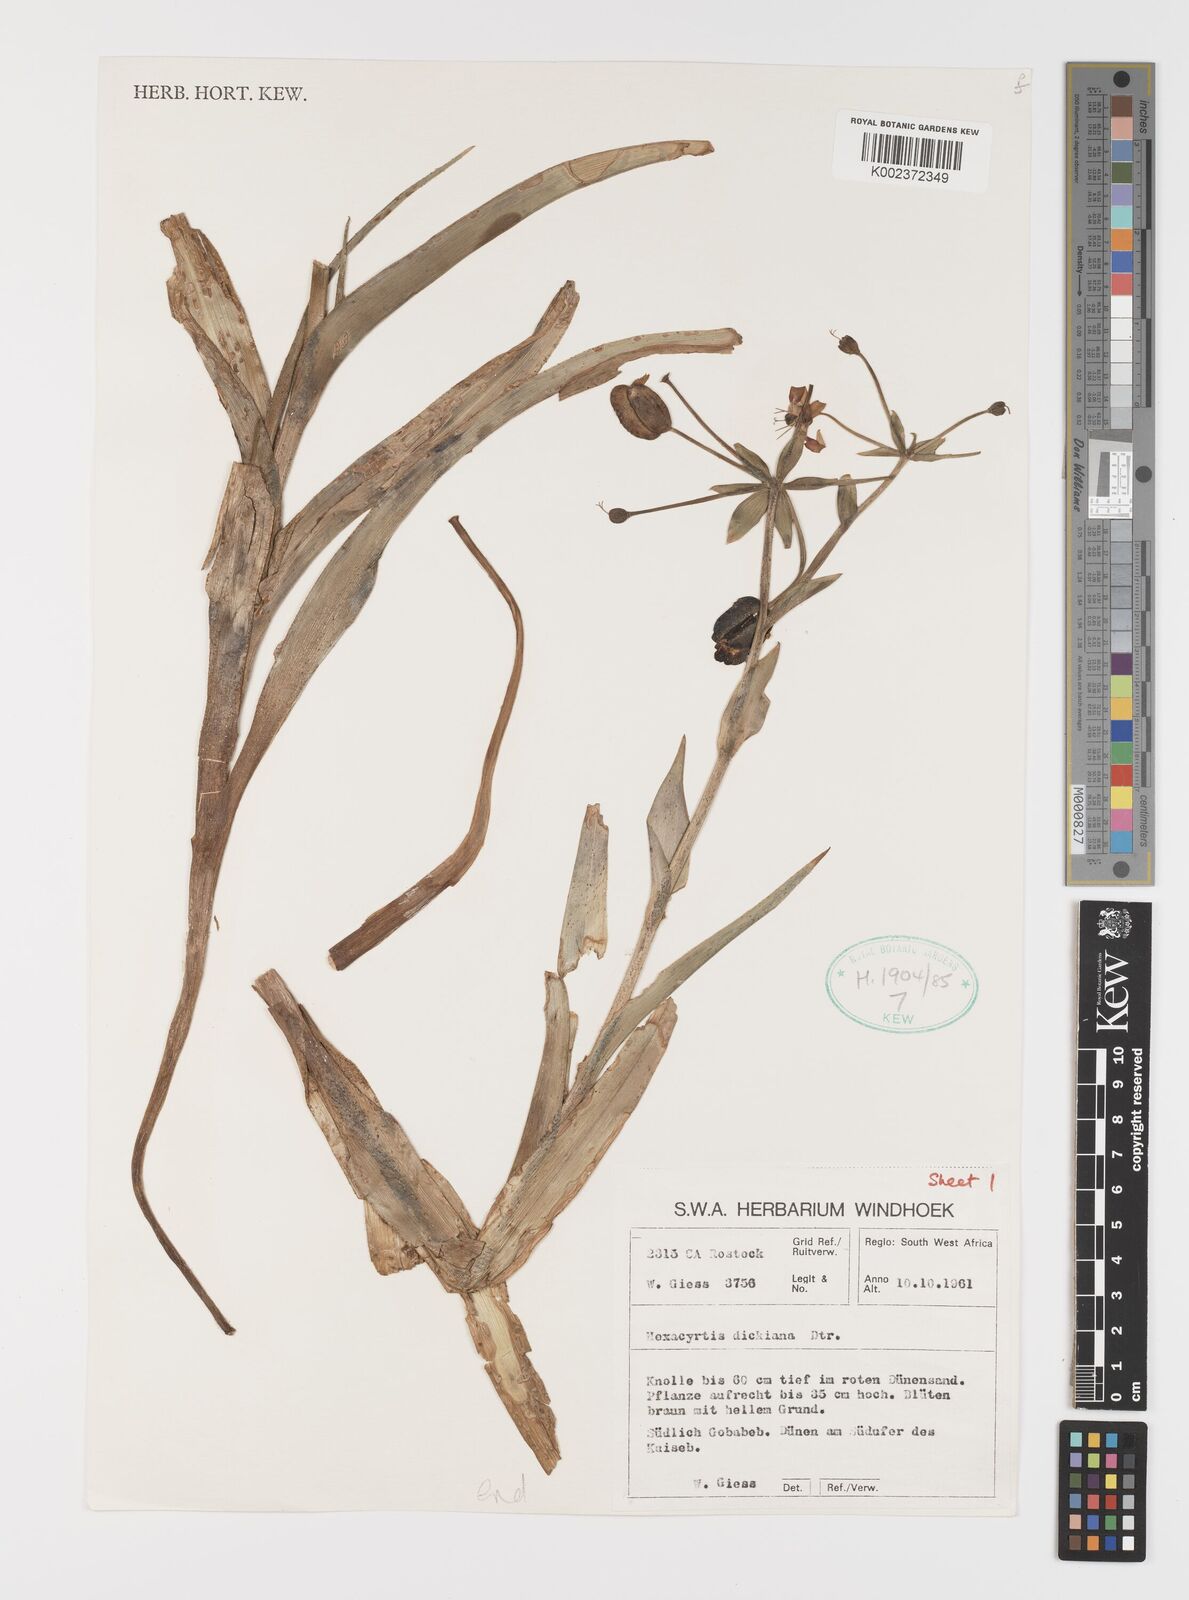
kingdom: Plantae
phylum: Tracheophyta
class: Liliopsida
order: Liliales
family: Colchicaceae
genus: Hexacyrtis
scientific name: Hexacyrtis dickiana
